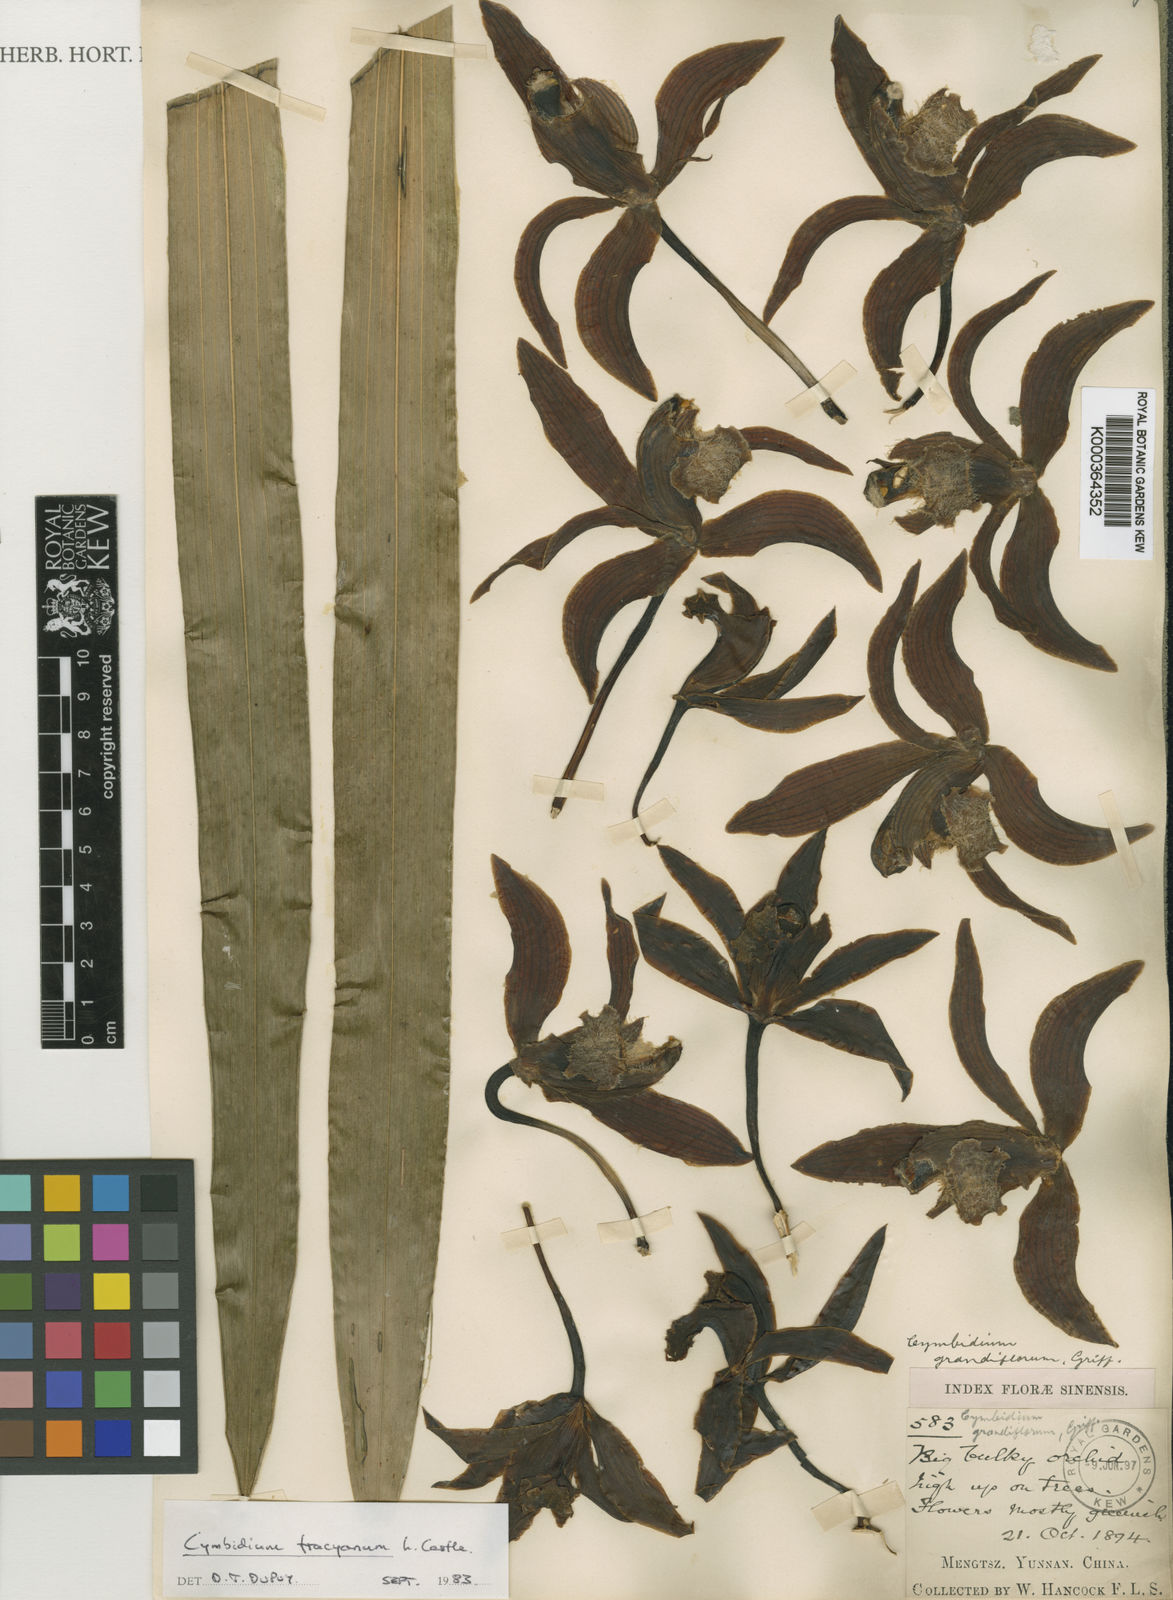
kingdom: Plantae
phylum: Tracheophyta
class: Liliopsida
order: Asparagales
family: Orchidaceae
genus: Cymbidium
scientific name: Cymbidium tracyanum
